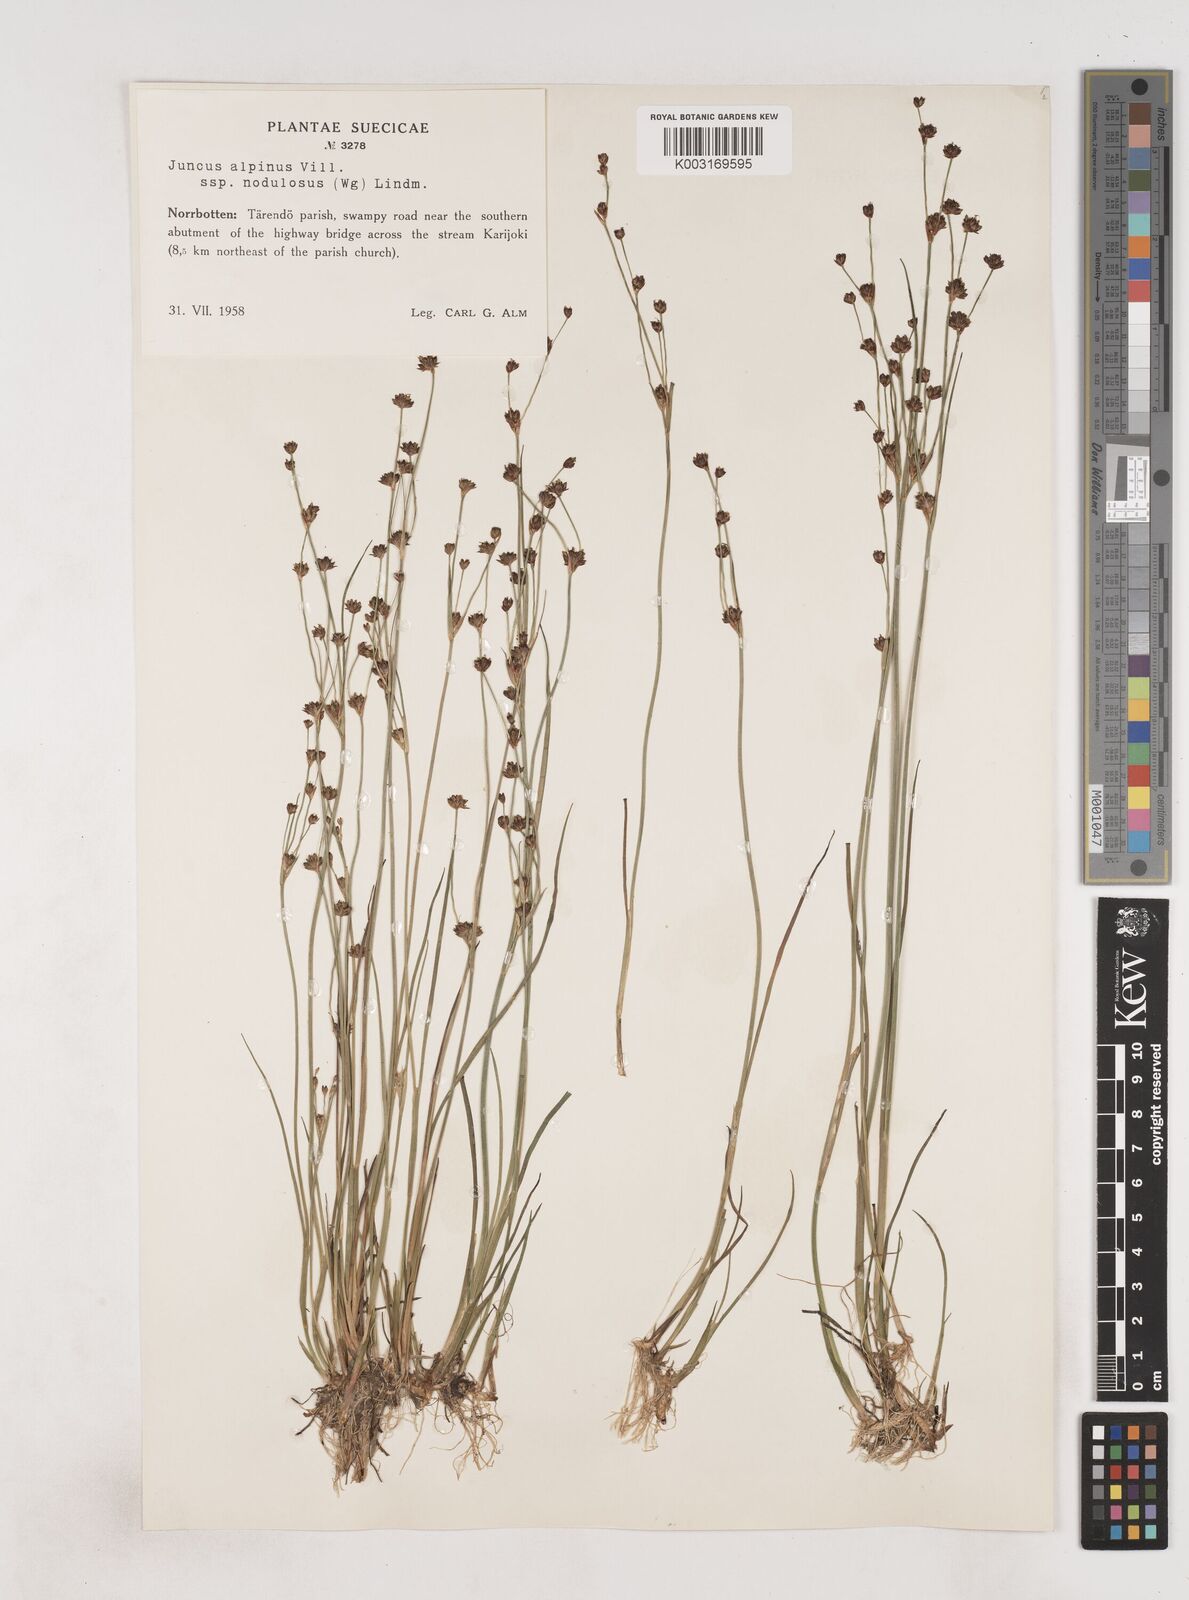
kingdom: Plantae
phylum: Tracheophyta
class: Liliopsida
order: Poales
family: Juncaceae
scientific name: Juncaceae
